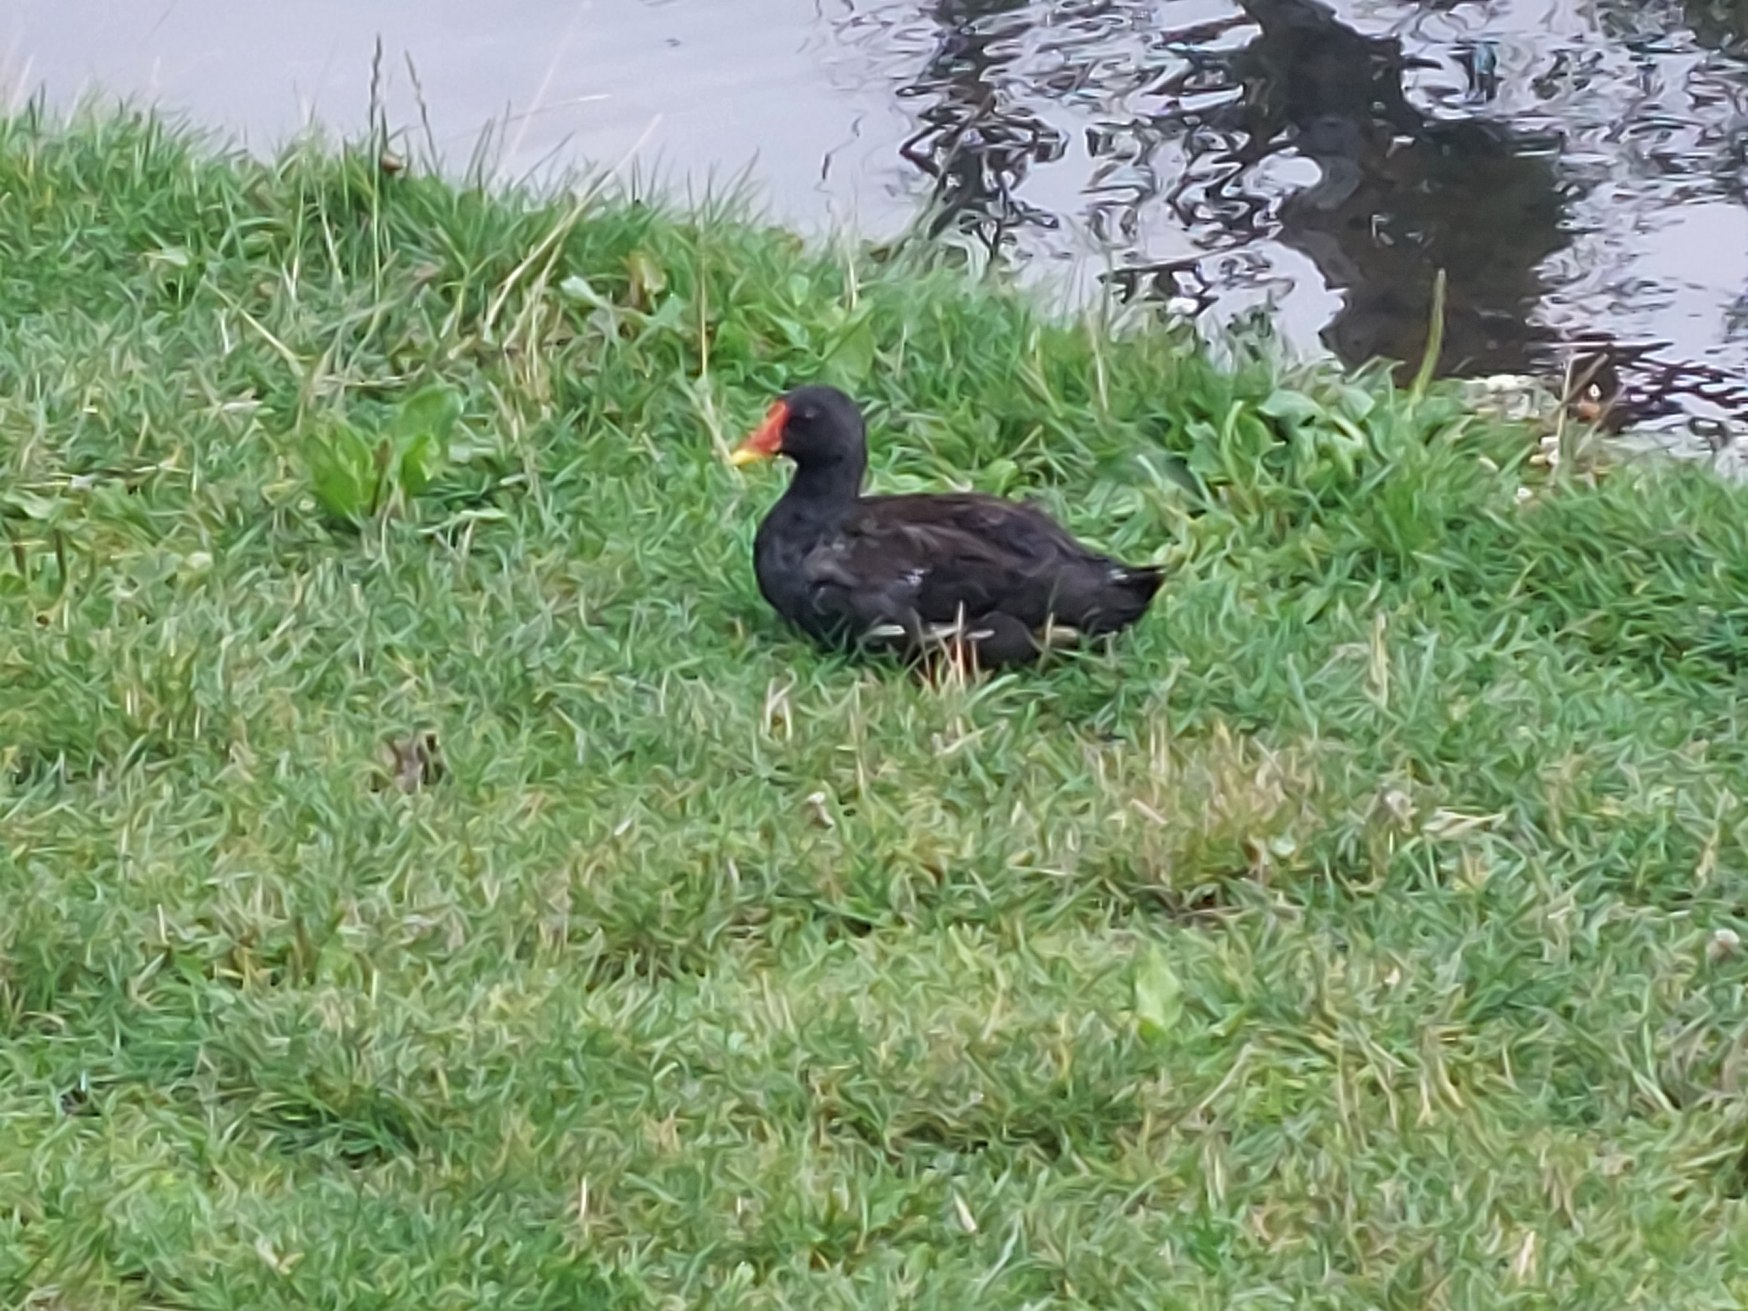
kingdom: Animalia
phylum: Chordata
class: Aves
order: Gruiformes
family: Rallidae
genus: Gallinula
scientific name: Gallinula chloropus
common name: Grønbenet rørhøne
